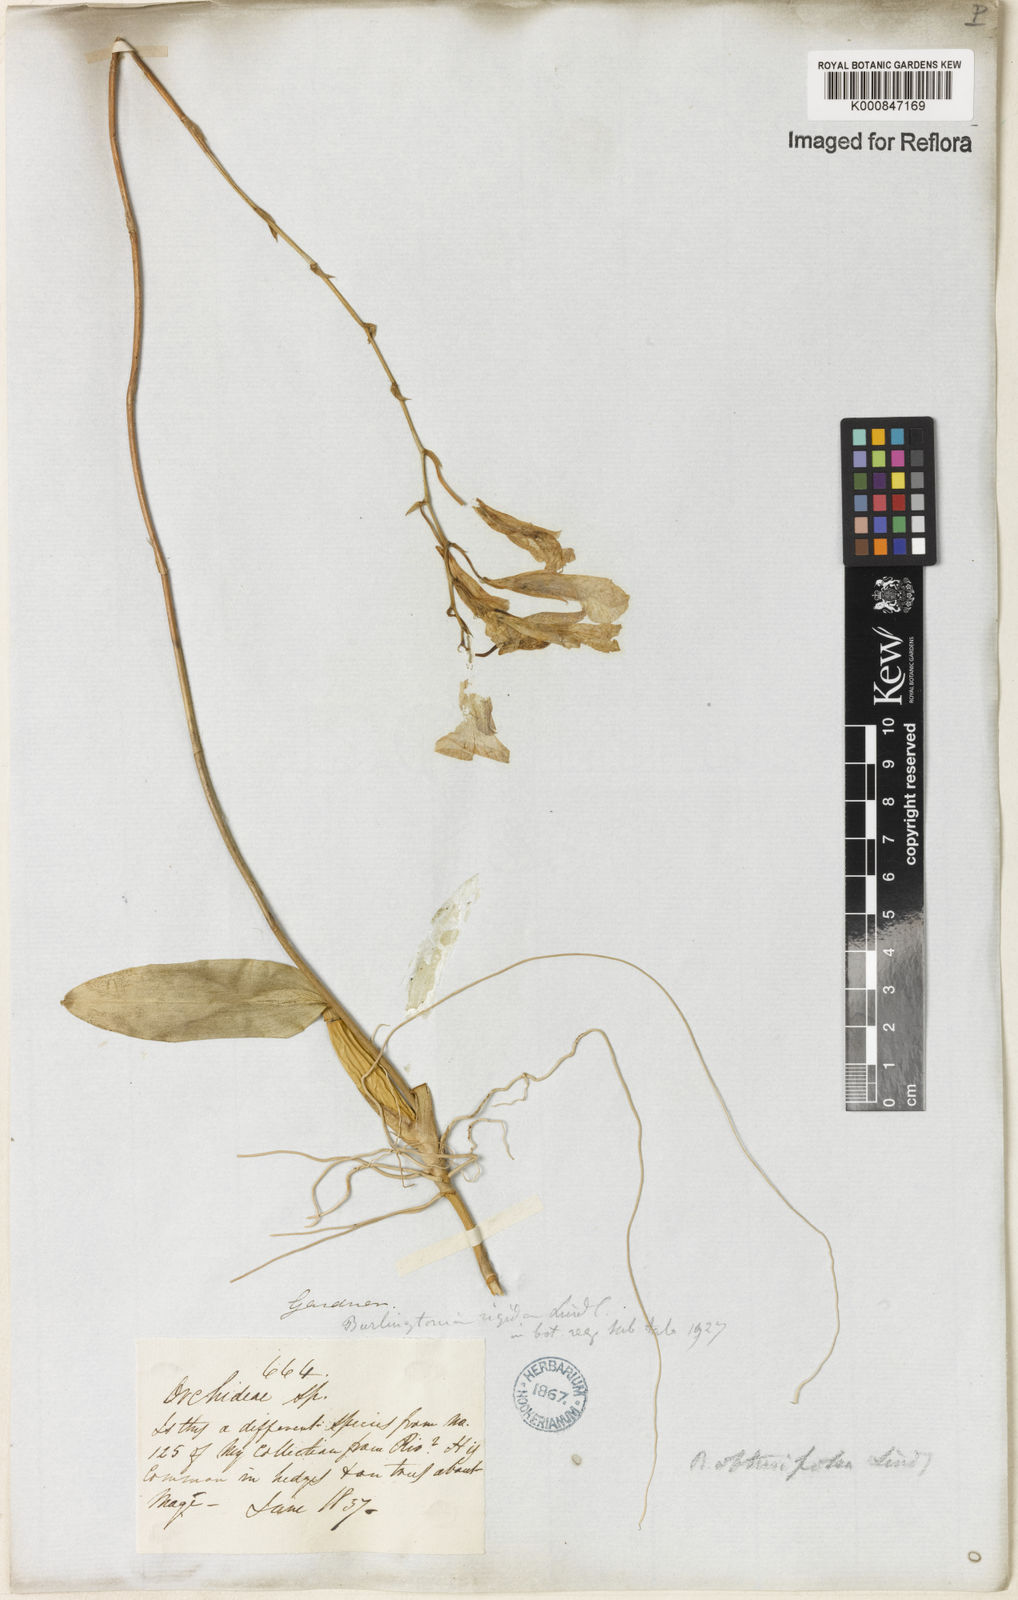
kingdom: Plantae
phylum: Tracheophyta
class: Liliopsida
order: Asparagales
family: Orchidaceae
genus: Rodriguezia
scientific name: Rodriguezia obtusifolia
